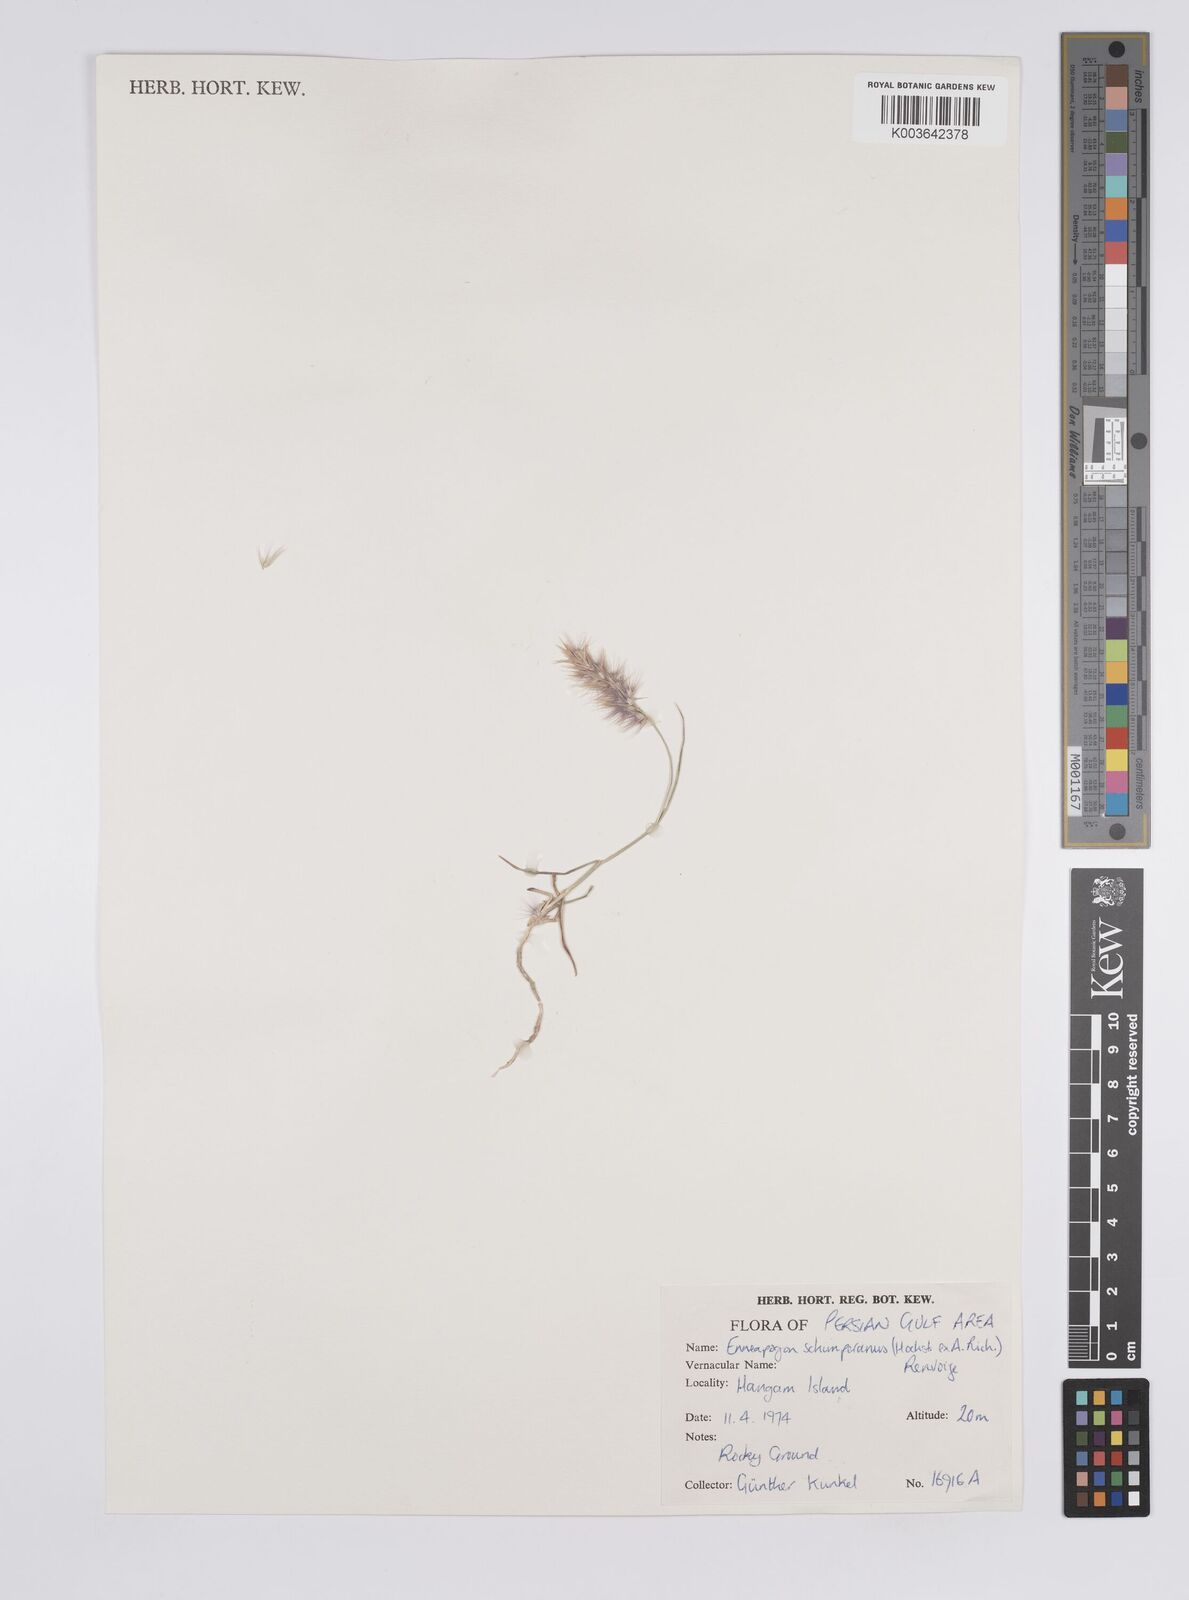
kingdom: Plantae
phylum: Tracheophyta
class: Liliopsida
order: Poales
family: Poaceae
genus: Enneapogon
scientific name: Enneapogon persicus
